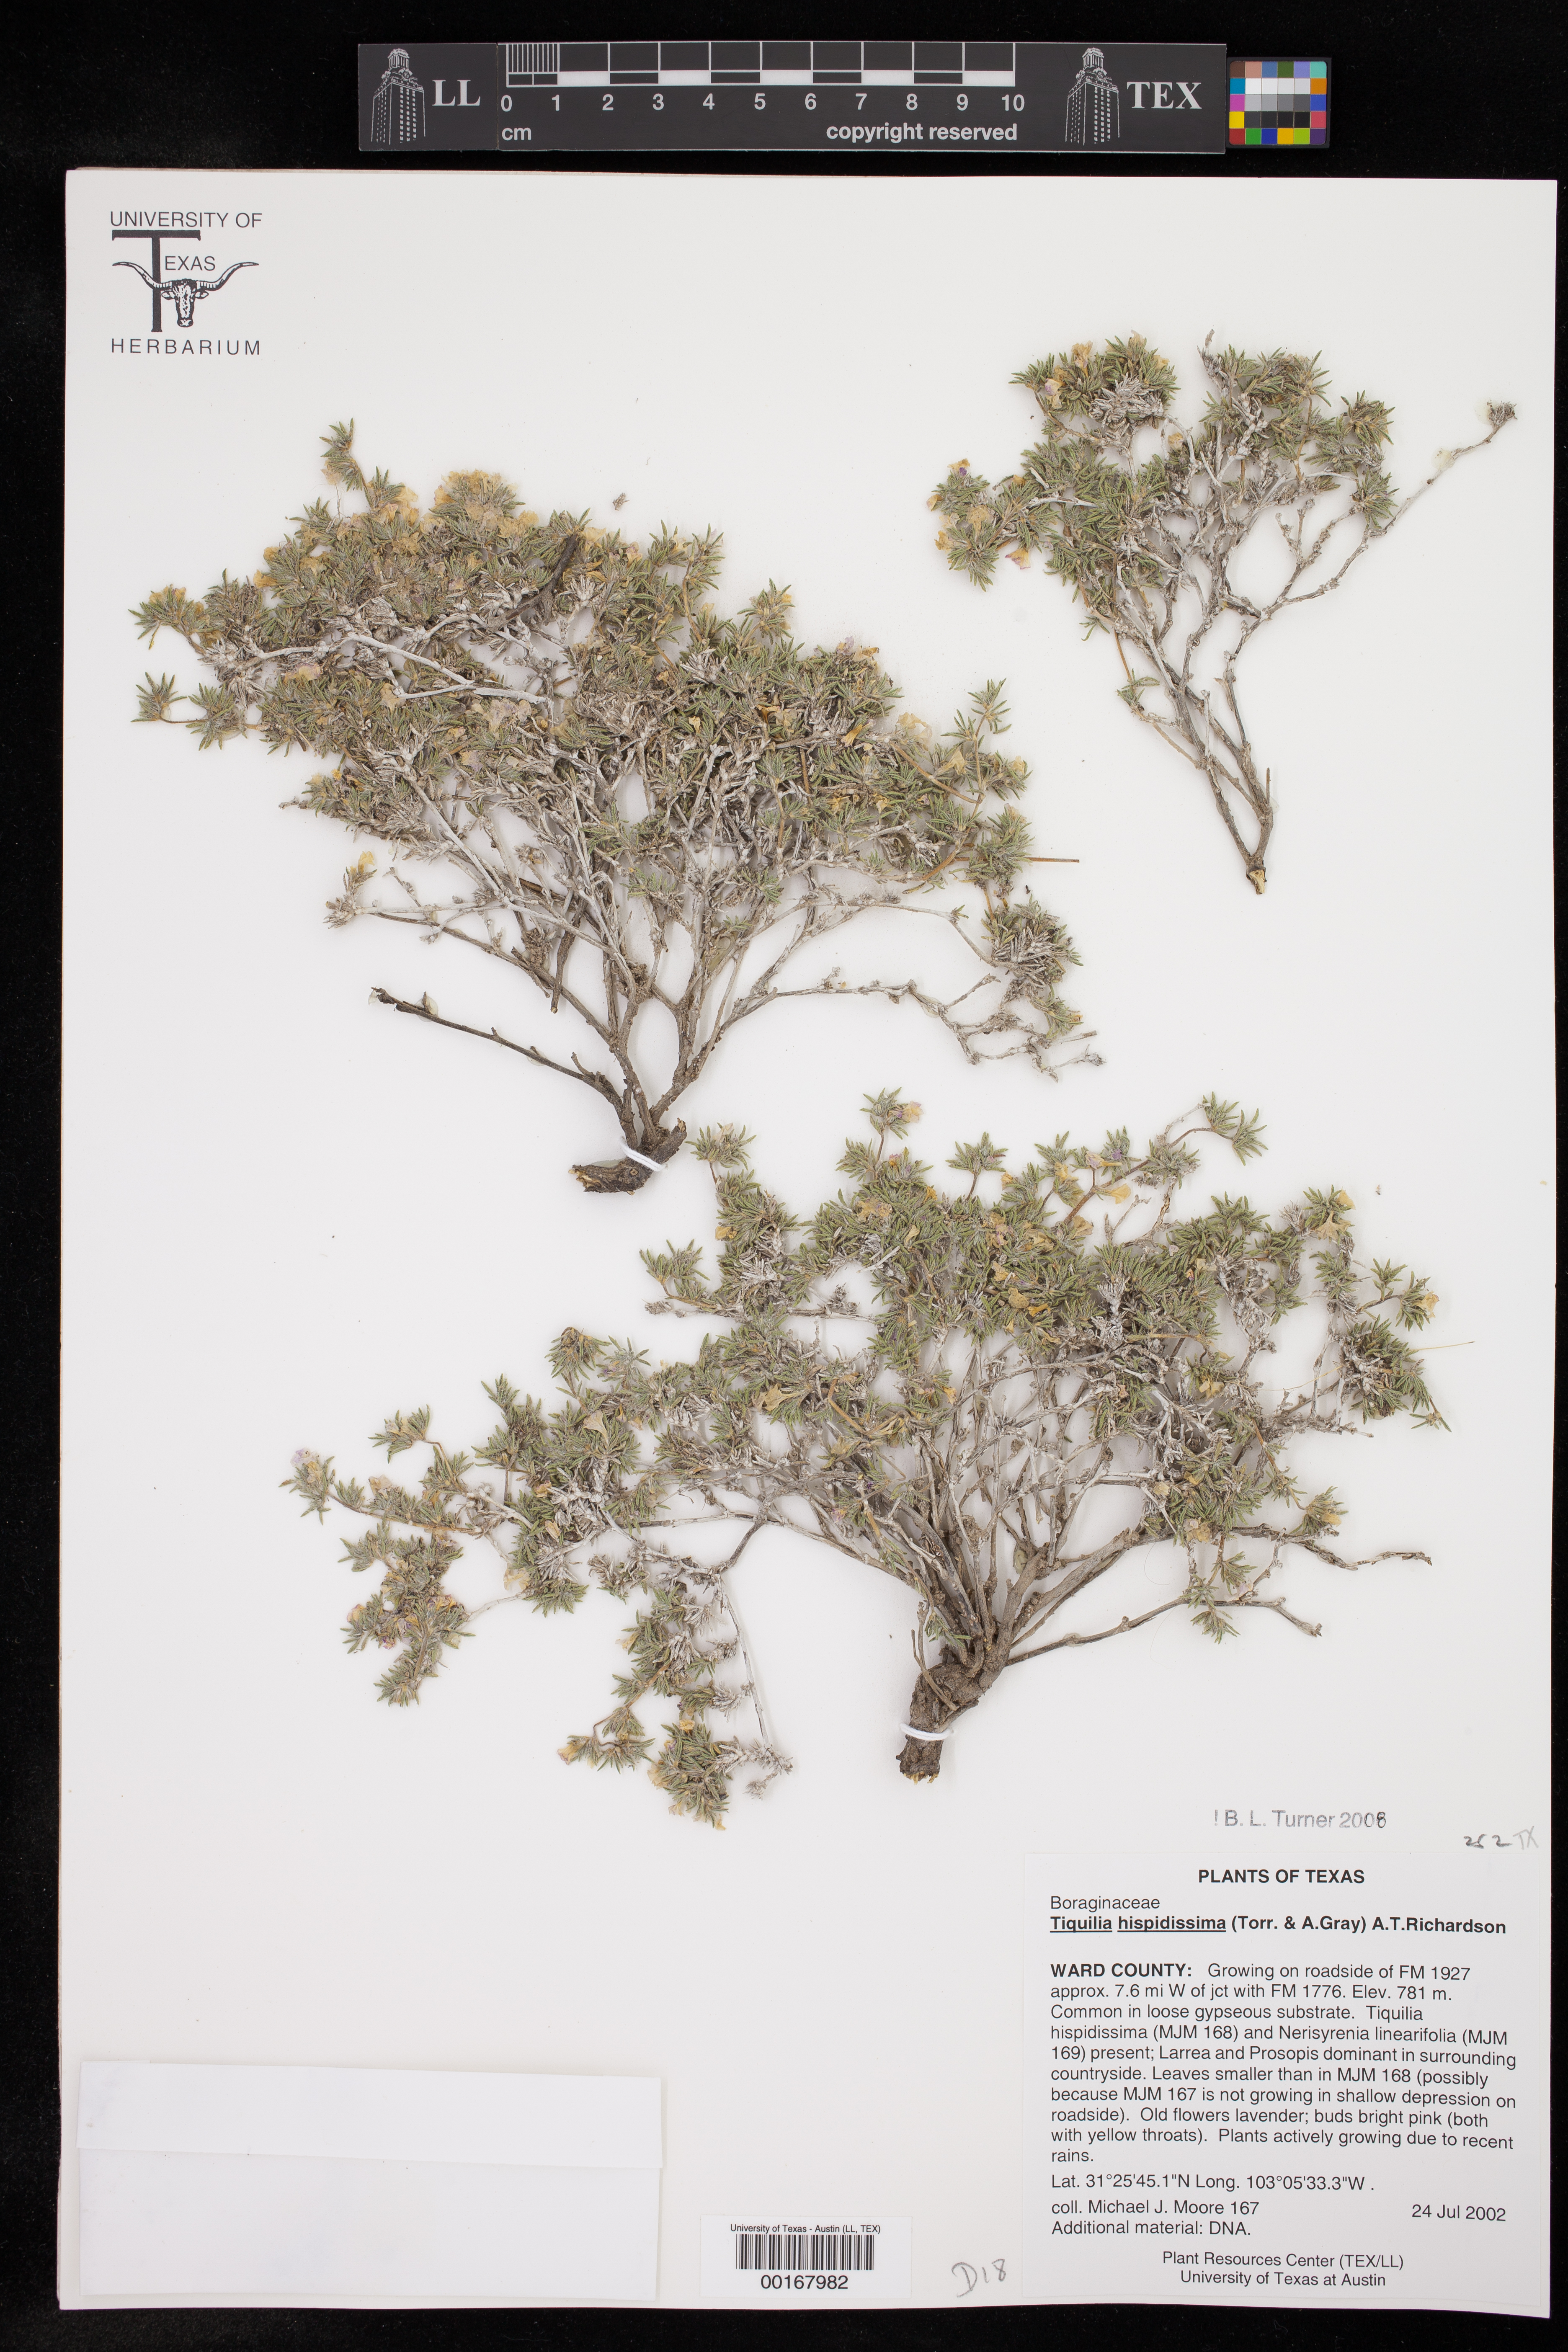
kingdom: Plantae
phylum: Tracheophyta
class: Magnoliopsida
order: Boraginales
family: Ehretiaceae
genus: Tiquilia
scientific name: Tiquilia hispidissima
